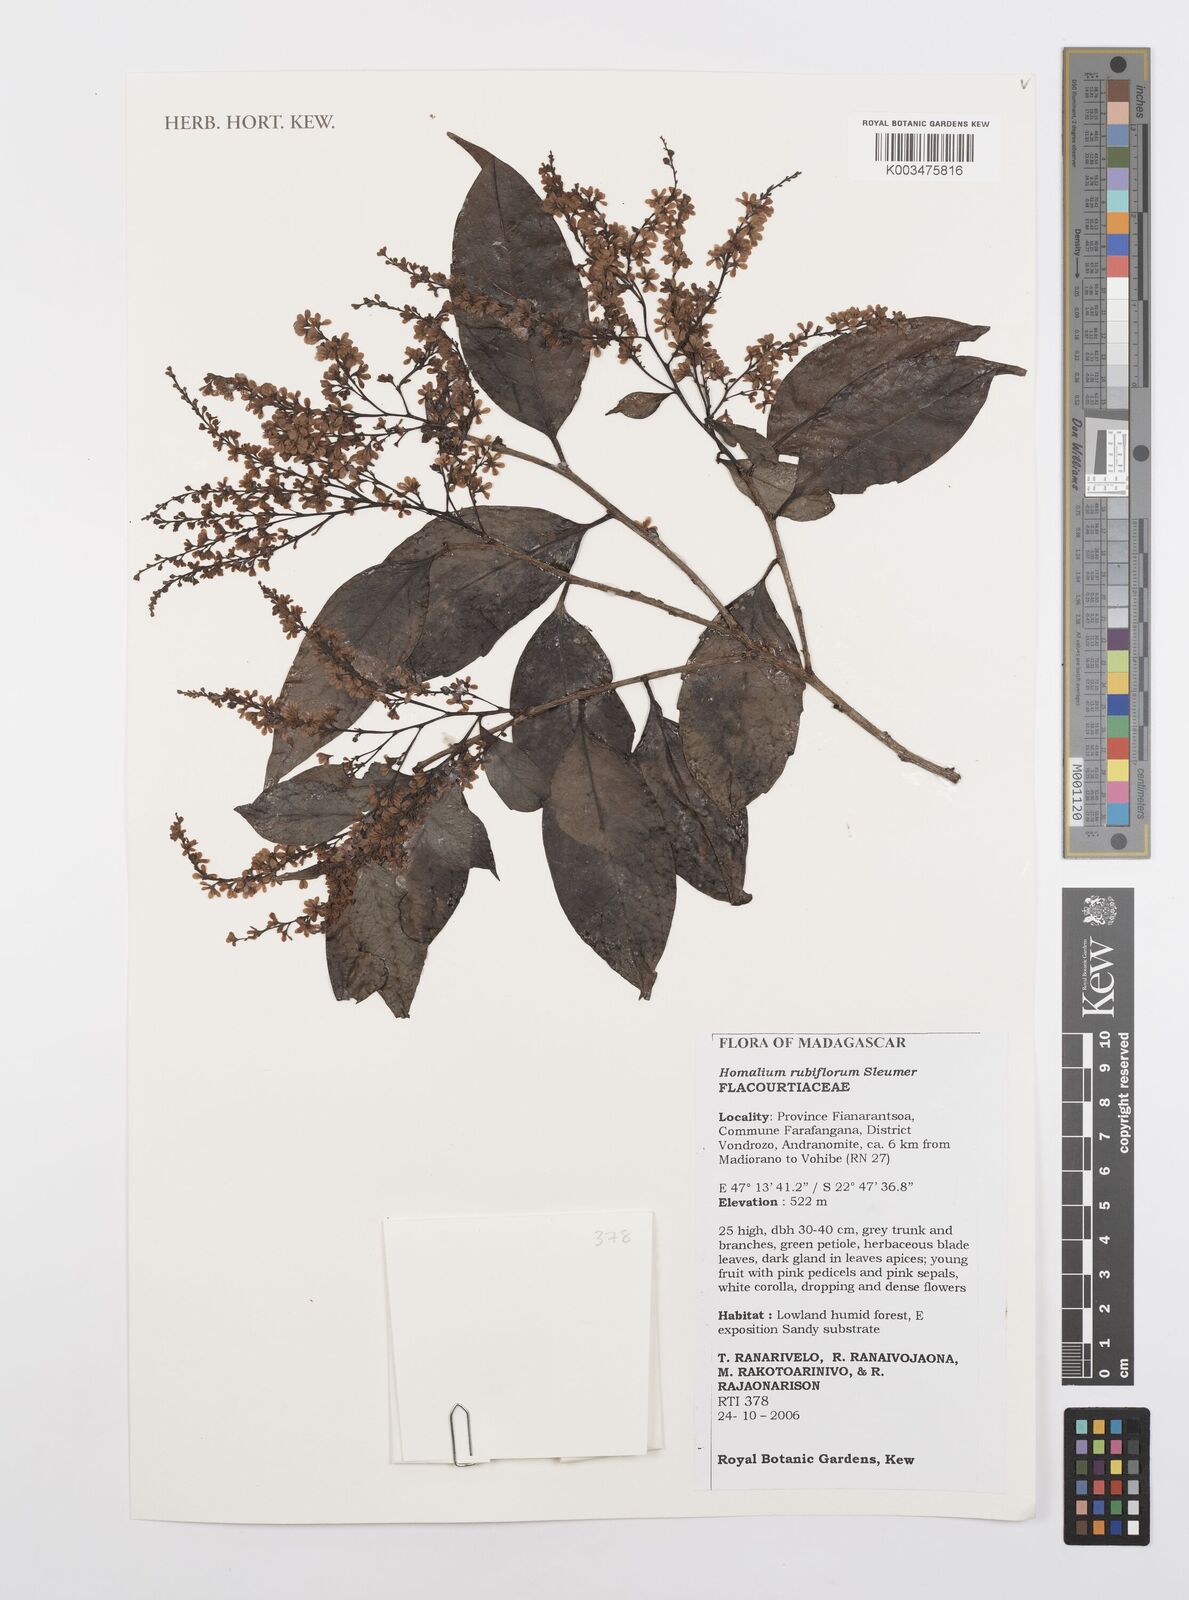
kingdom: Plantae
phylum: Tracheophyta
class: Magnoliopsida
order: Malpighiales
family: Salicaceae
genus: Homalium
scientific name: Homalium rubriflorum
